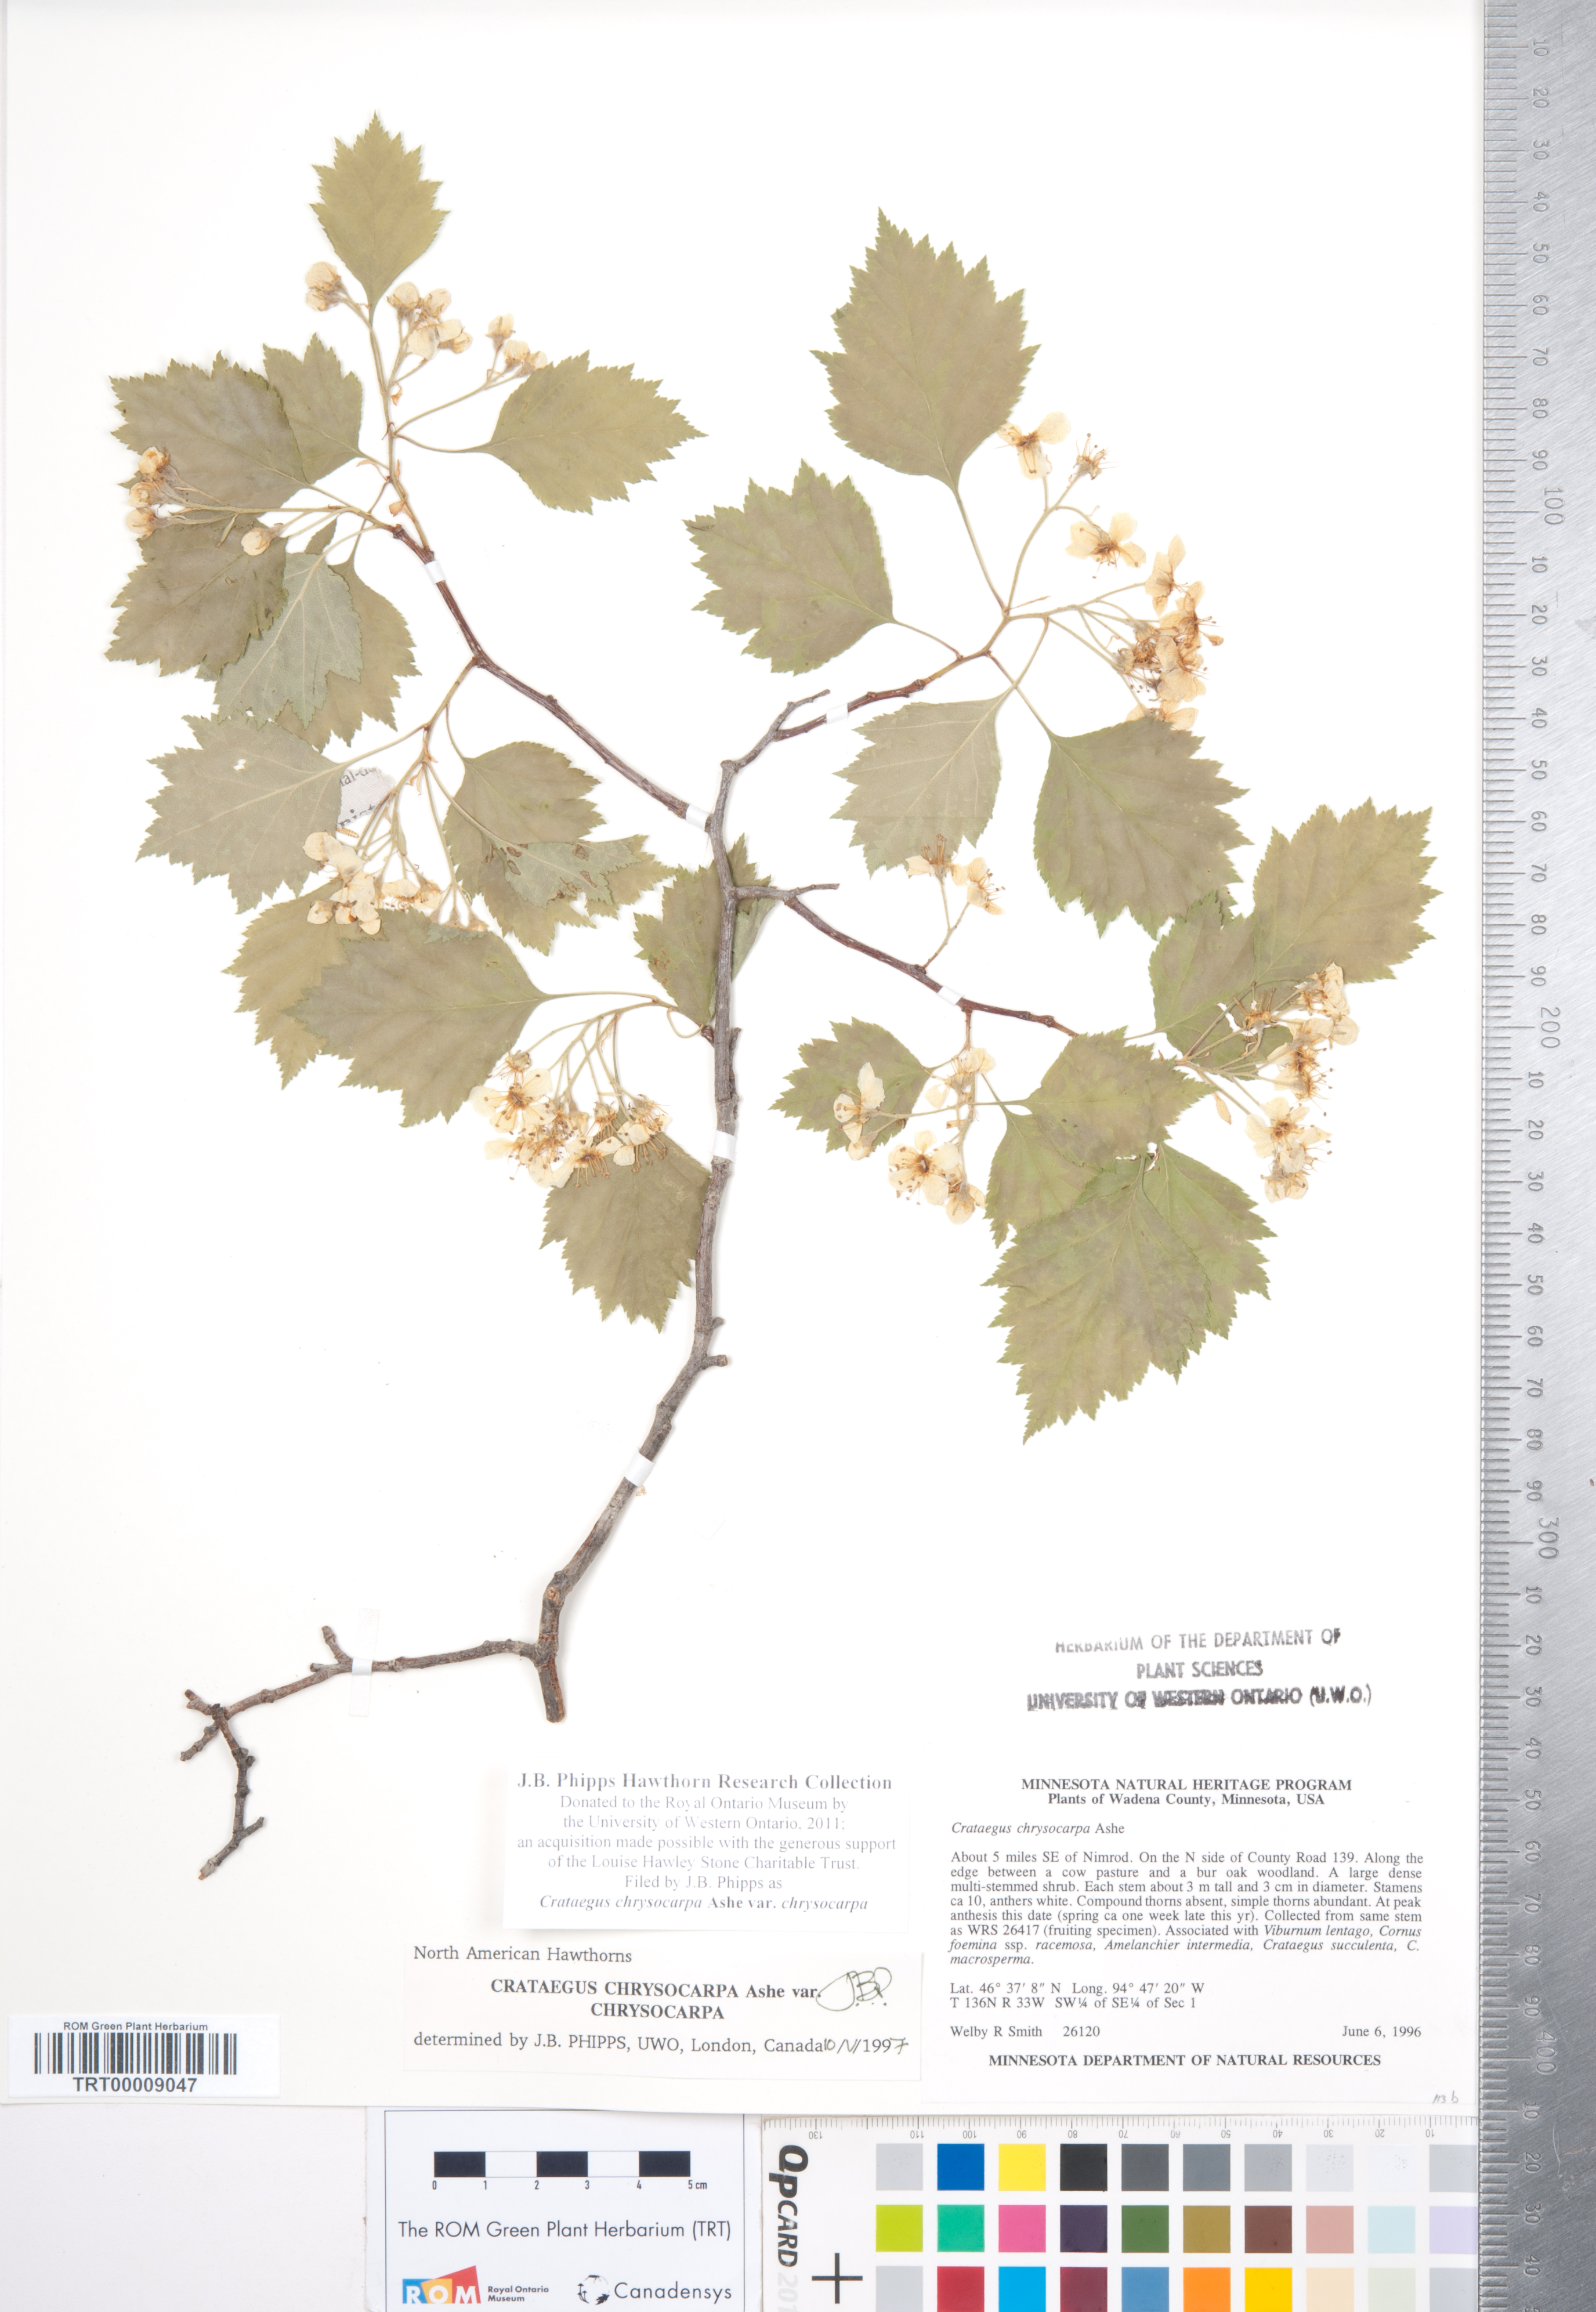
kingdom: Plantae
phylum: Tracheophyta
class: Magnoliopsida
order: Rosales
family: Rosaceae
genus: Crataegus
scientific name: Crataegus chrysocarpa
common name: Fire-berry hawthorn
